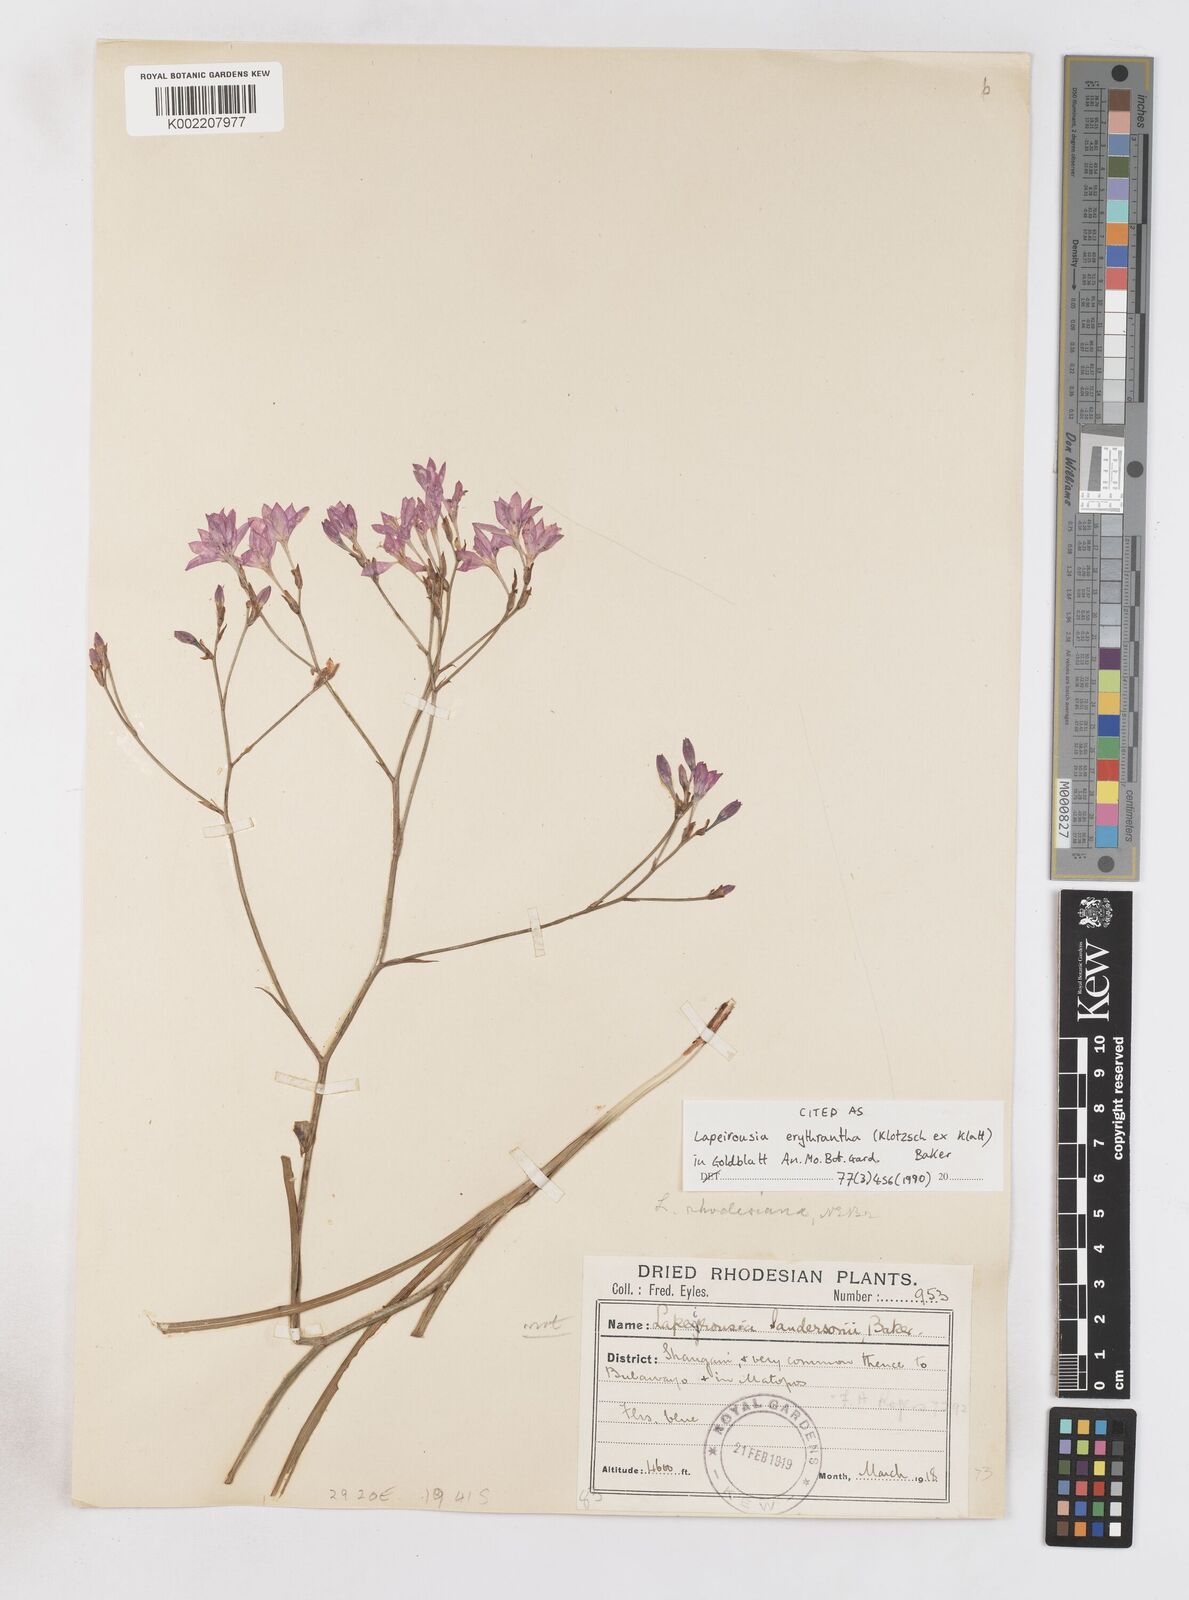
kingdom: Plantae
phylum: Tracheophyta
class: Liliopsida
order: Asparagales
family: Iridaceae
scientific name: Iridaceae
